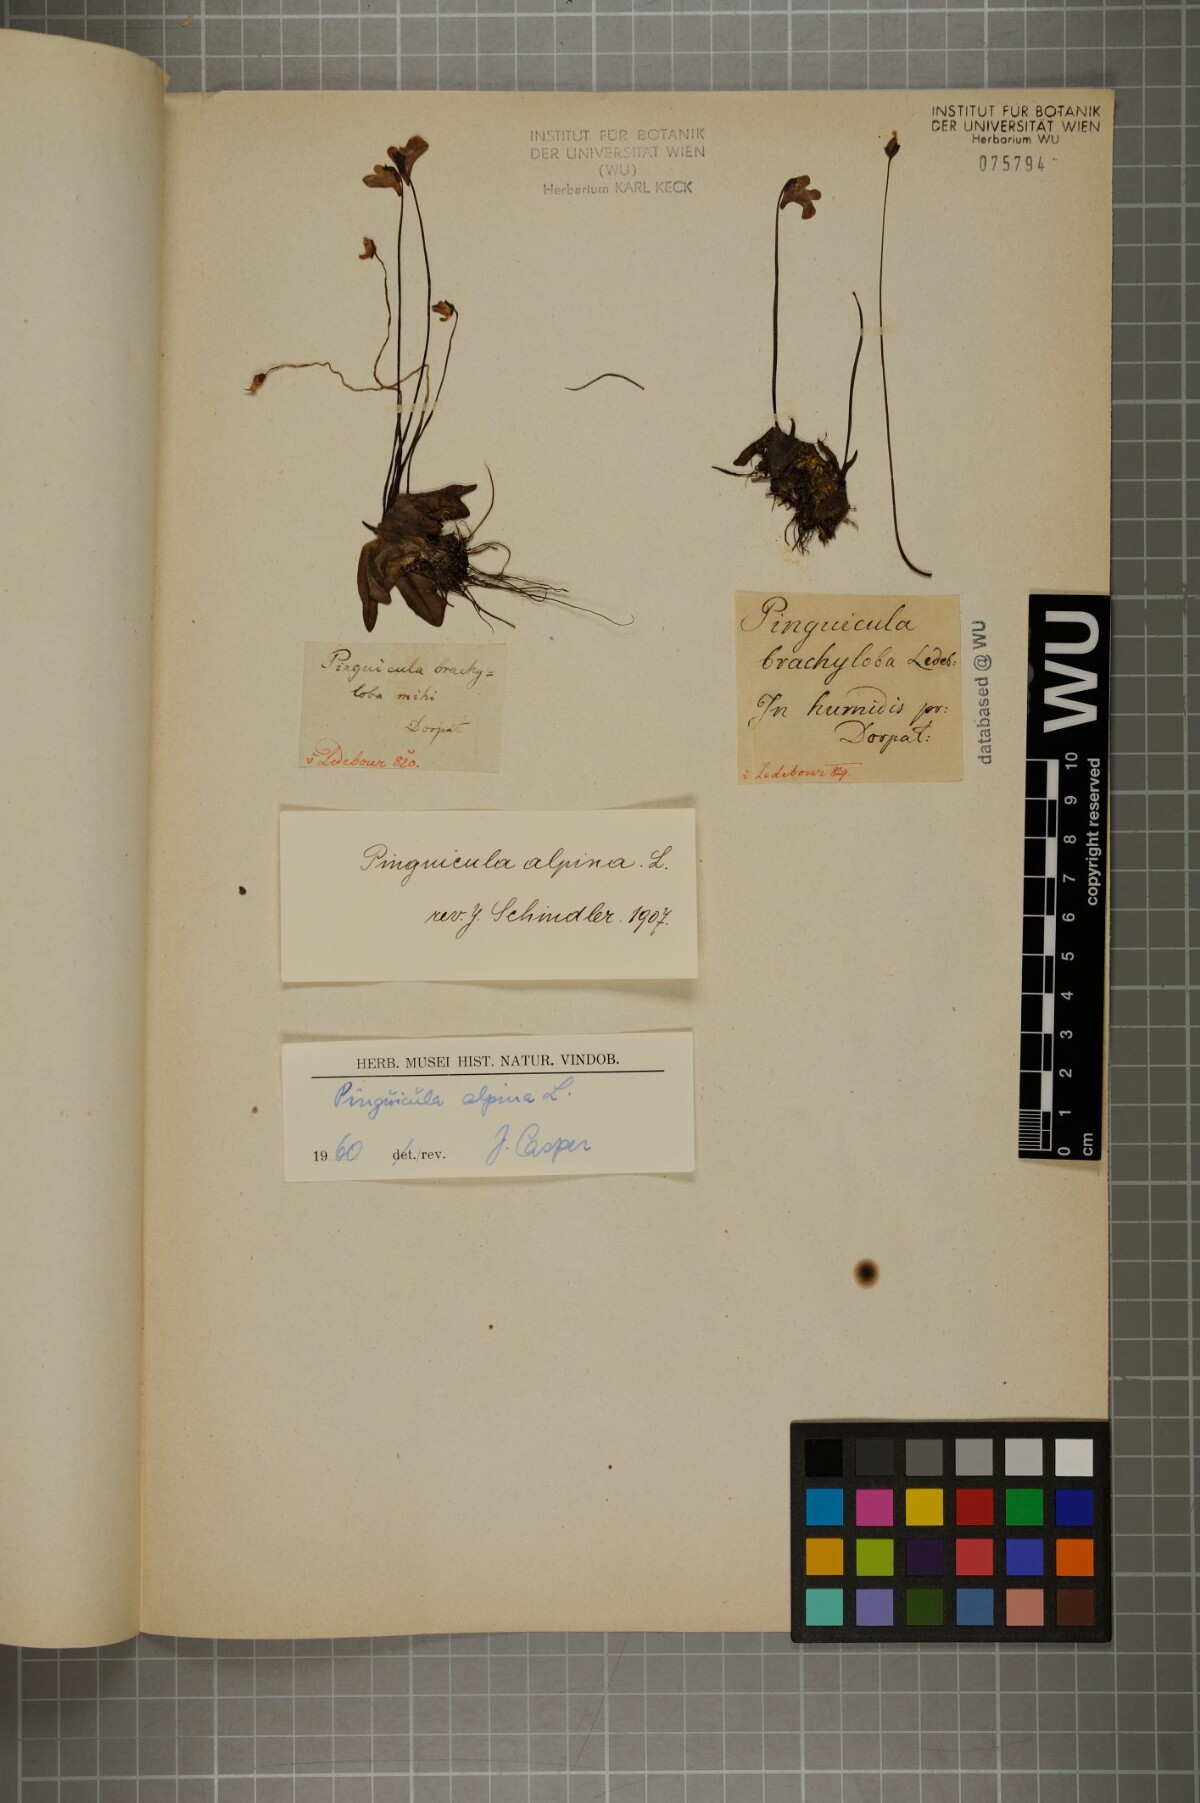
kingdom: Plantae
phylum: Tracheophyta
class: Magnoliopsida
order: Lamiales
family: Lentibulariaceae
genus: Pinguicula
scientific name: Pinguicula alpina
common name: Alpine butterwort
